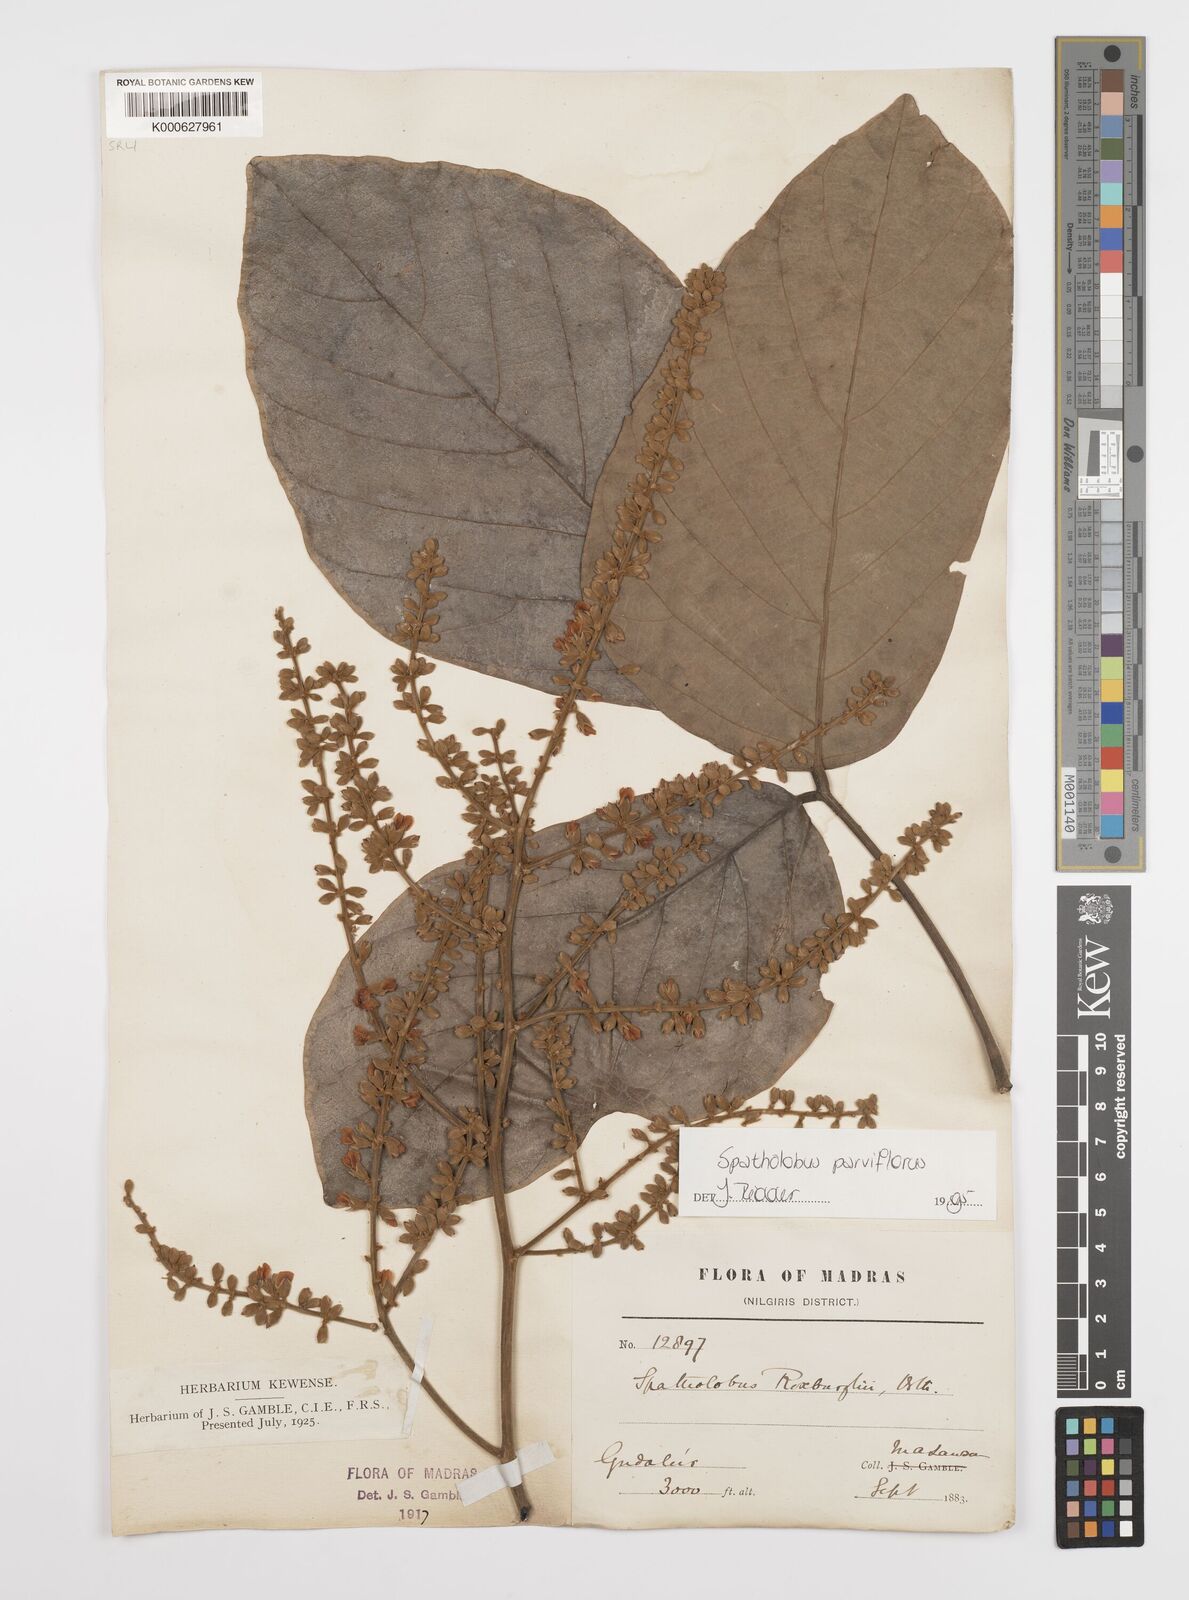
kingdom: Plantae
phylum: Tracheophyta
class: Magnoliopsida
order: Fabales
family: Fabaceae
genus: Spatholobus
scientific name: Spatholobus parviflorus
